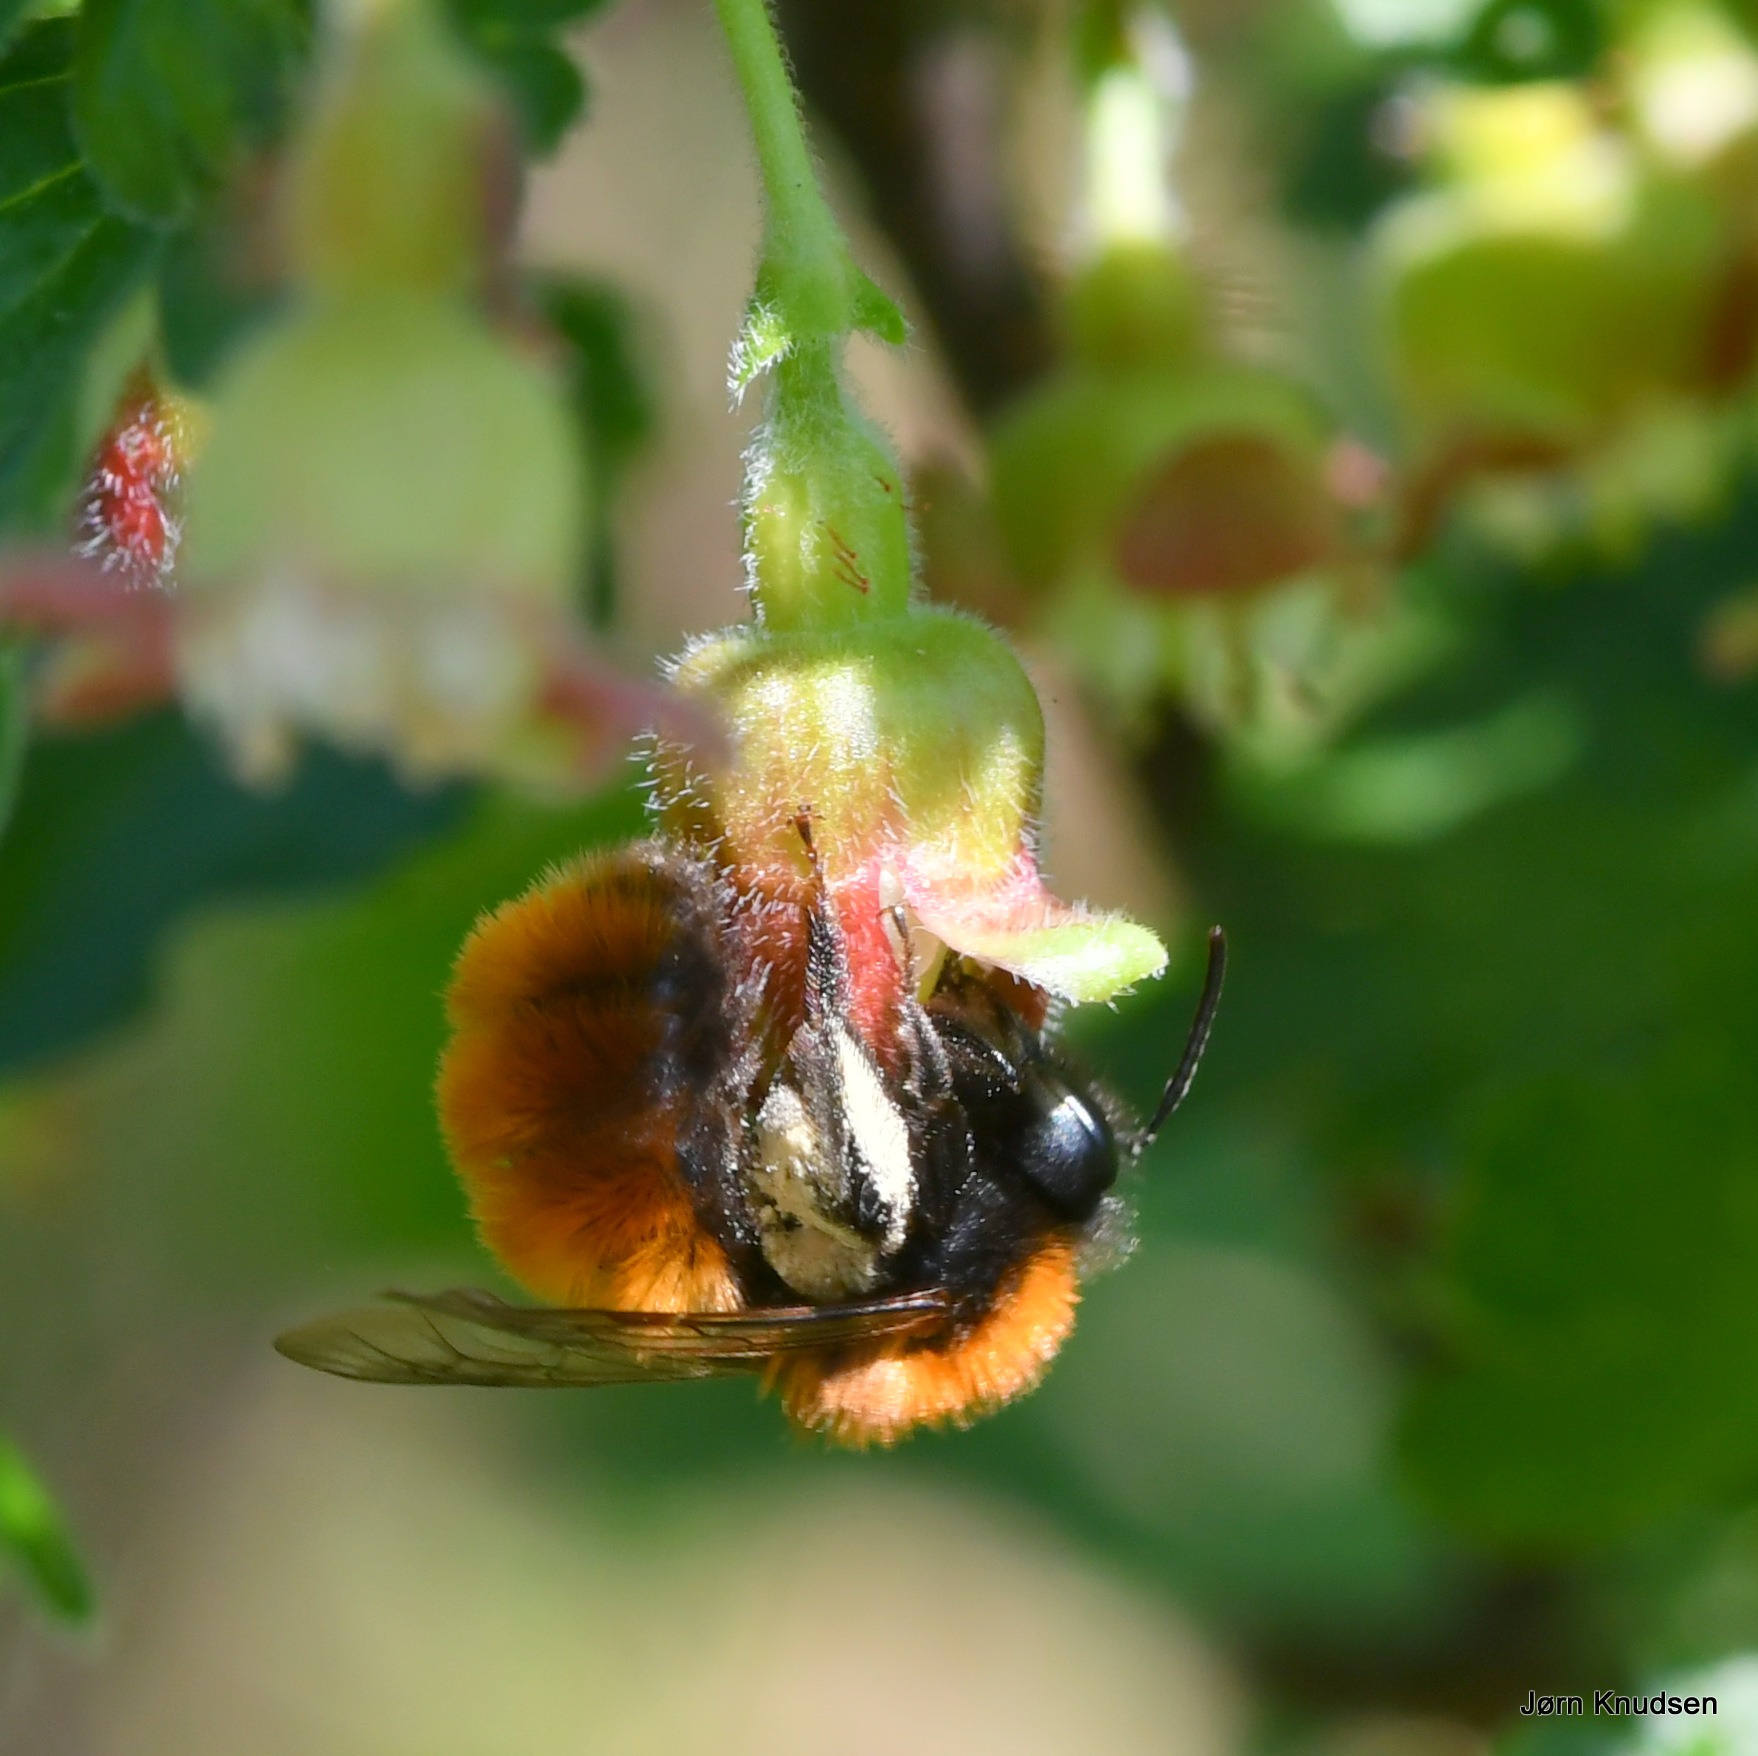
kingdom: Animalia
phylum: Arthropoda
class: Insecta
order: Hymenoptera
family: Andrenidae
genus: Andrena
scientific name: Andrena fulva
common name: Rødpelset jordbi
